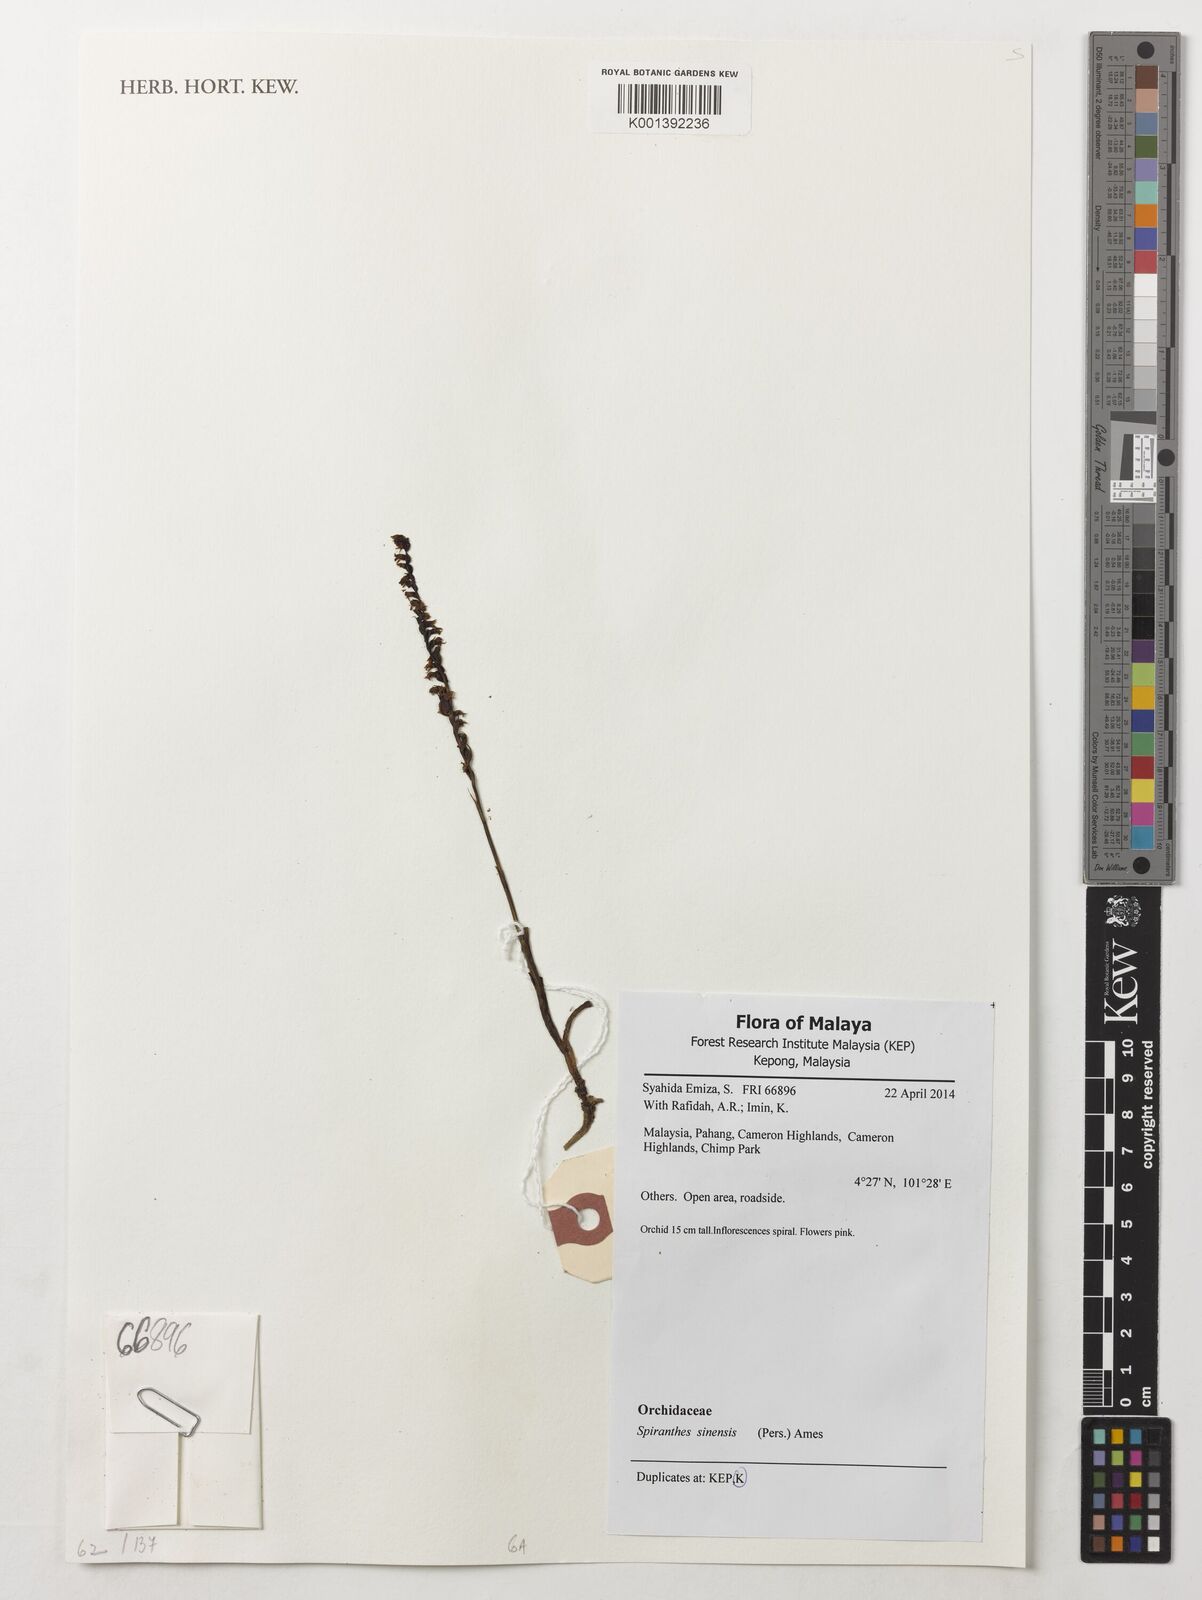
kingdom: Plantae
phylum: Tracheophyta
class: Liliopsida
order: Asparagales
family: Orchidaceae
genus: Spiranthes
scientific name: Spiranthes sinensis
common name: Chinese spiranthes
